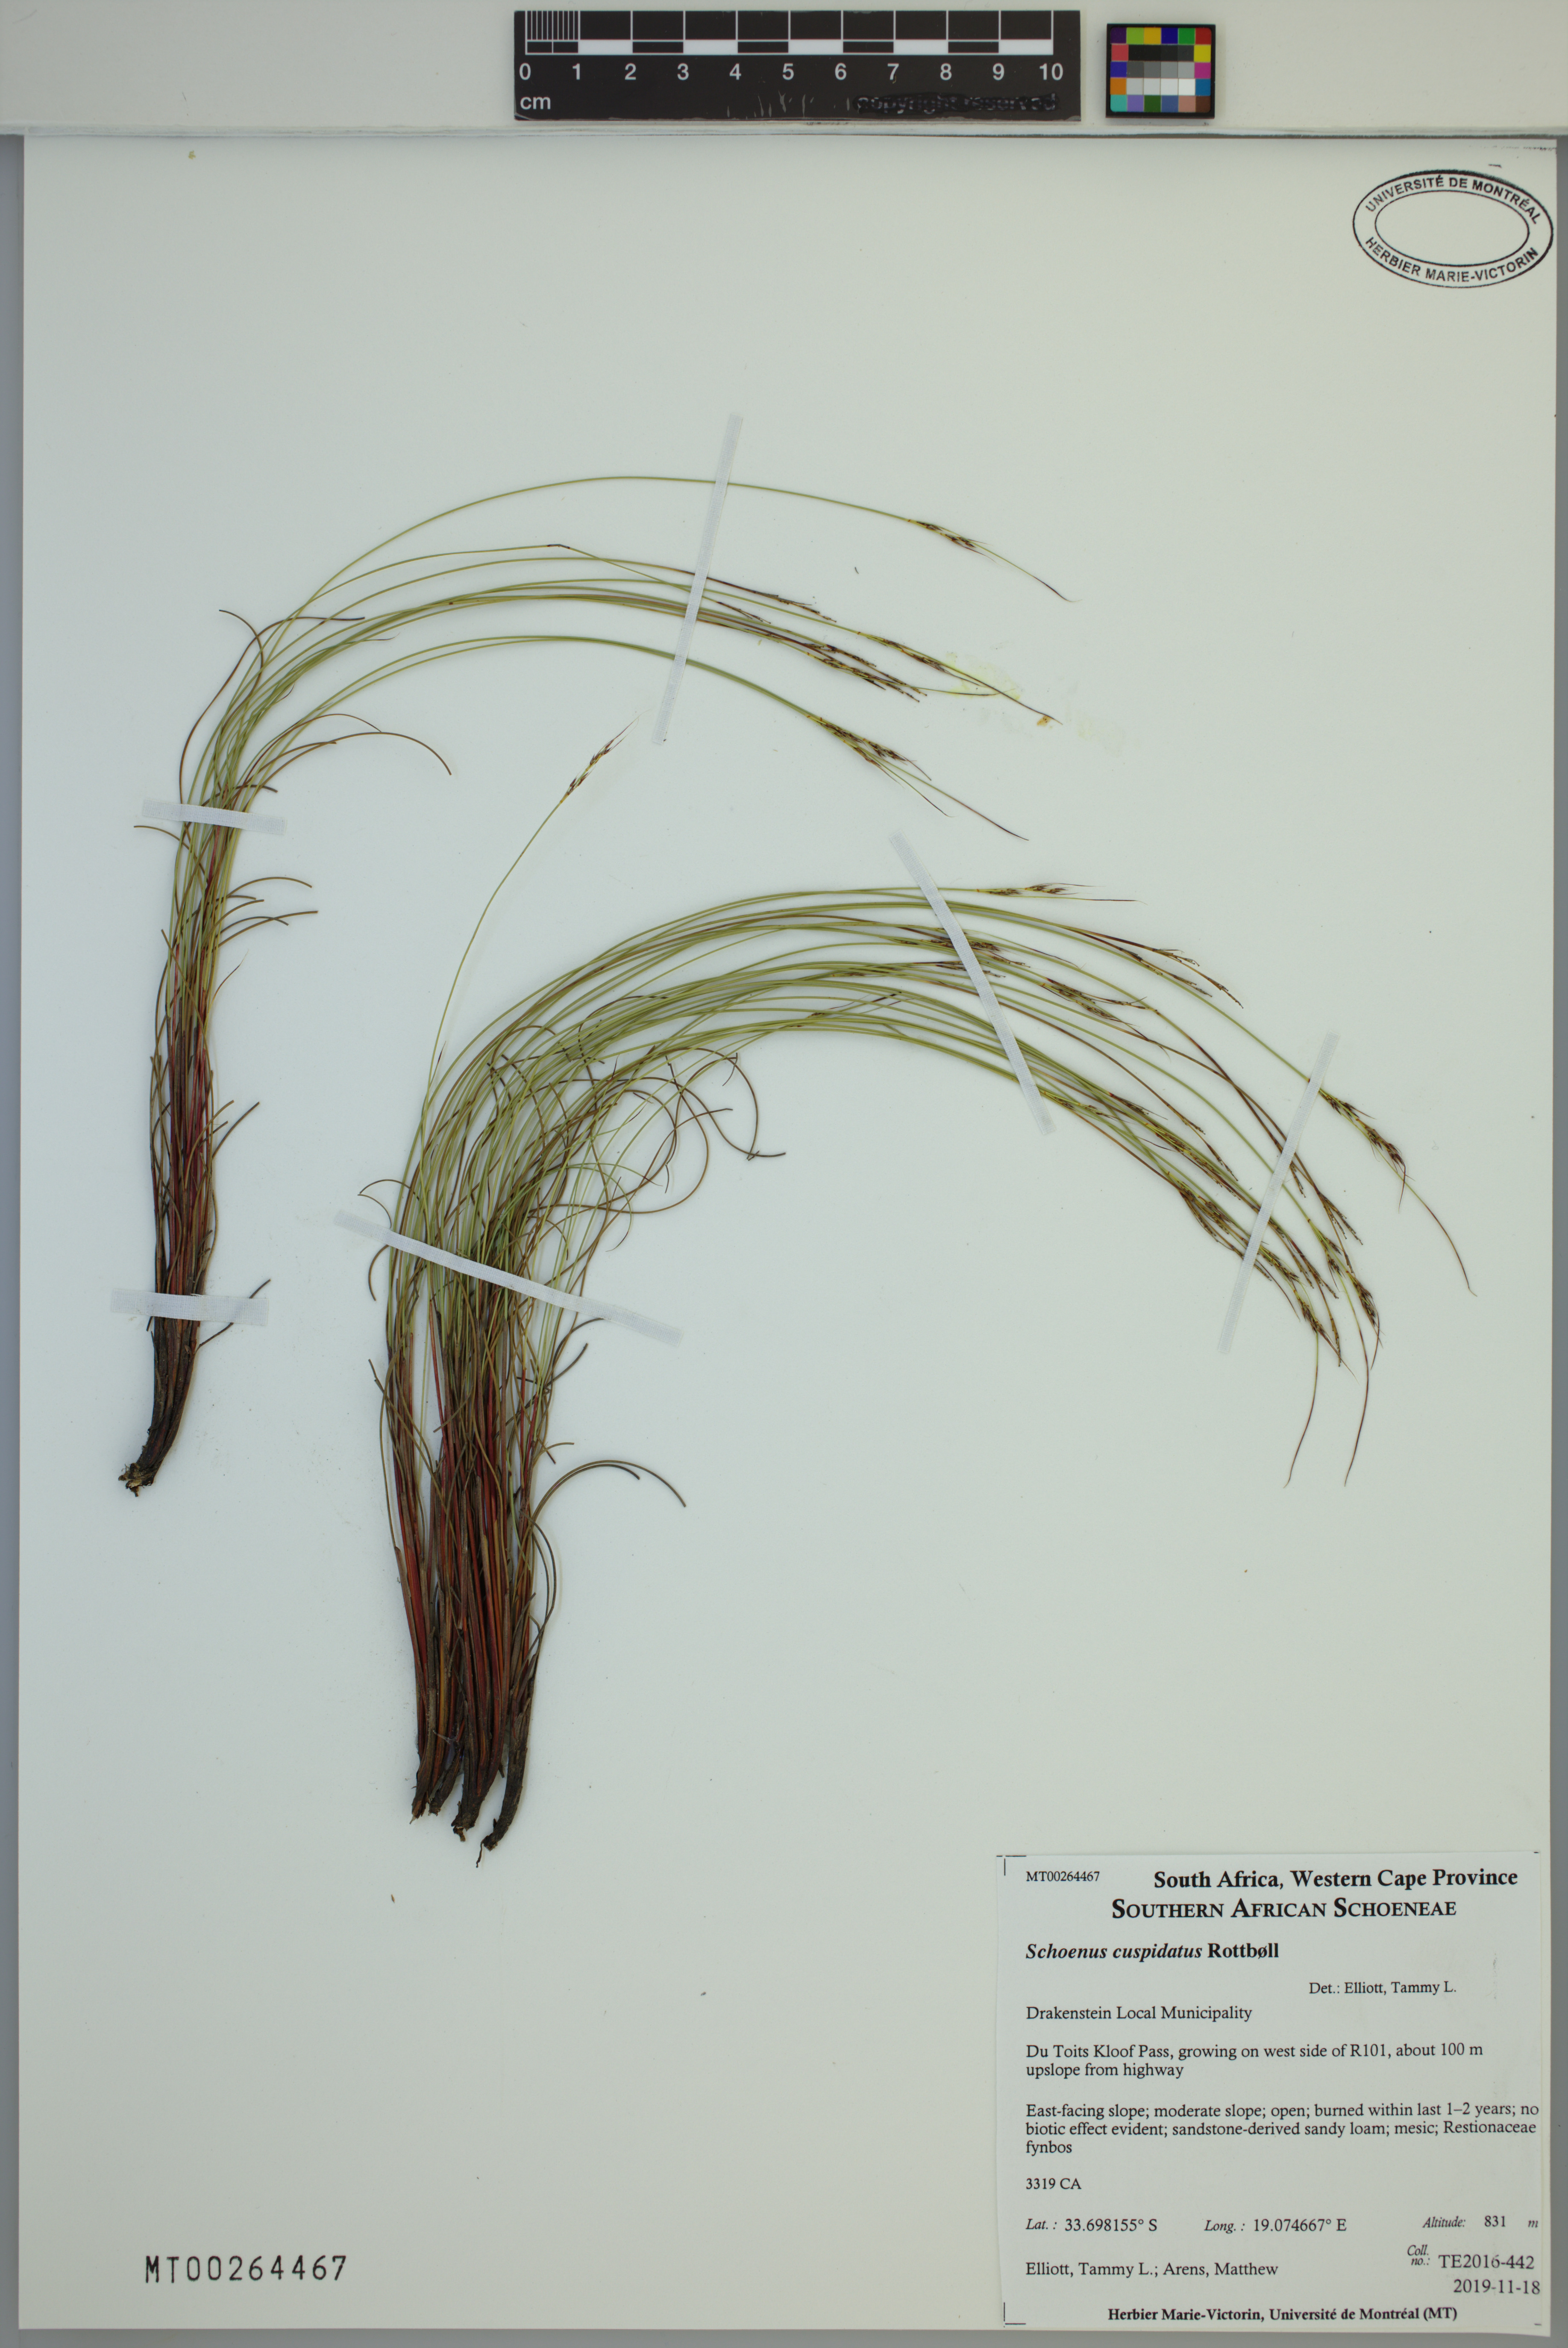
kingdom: Plantae
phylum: Tracheophyta
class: Liliopsida
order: Poales
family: Cyperaceae
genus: Schoenus
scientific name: Schoenus cuspidatus
